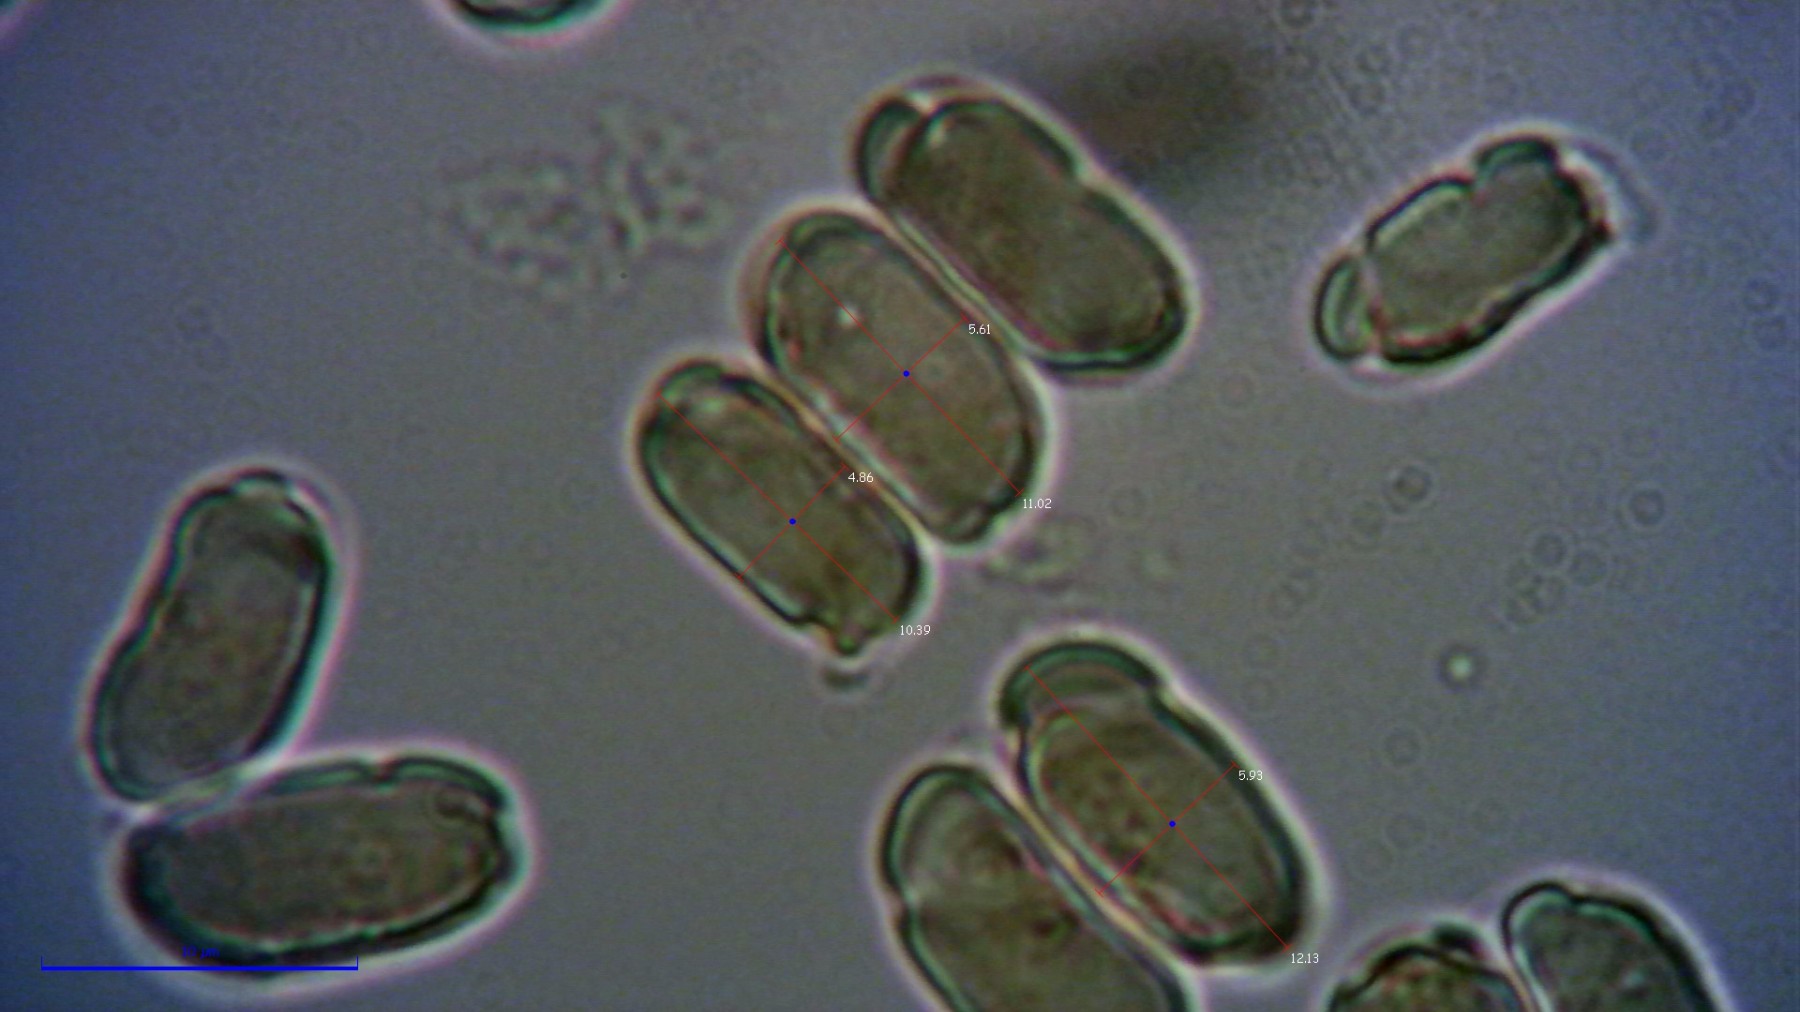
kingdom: Fungi
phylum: Basidiomycota
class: Agaricomycetes
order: Agaricales
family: Hygrophoraceae
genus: Hygrocybe
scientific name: Hygrocybe acutoconica
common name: spidspuklet vokshat
